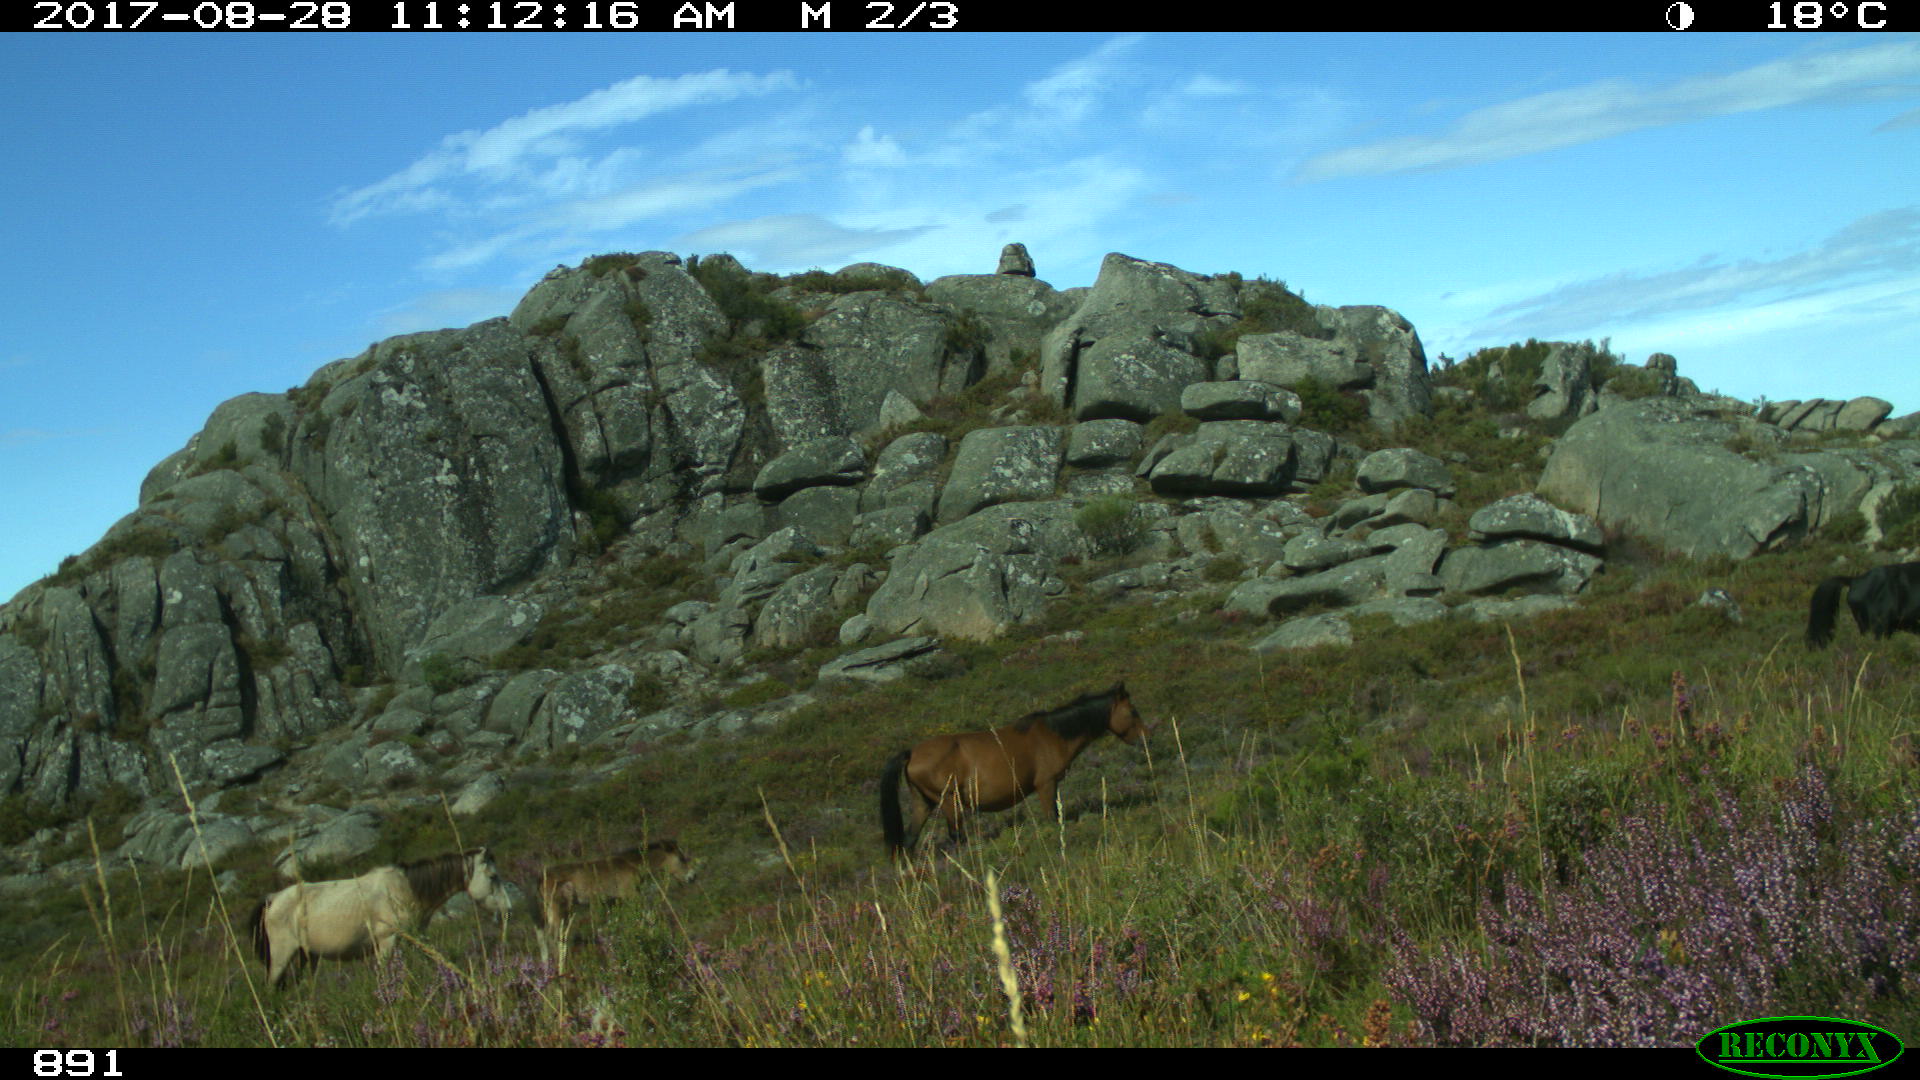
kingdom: Animalia
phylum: Chordata
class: Mammalia
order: Perissodactyla
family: Equidae
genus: Equus
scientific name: Equus caballus
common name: Horse
